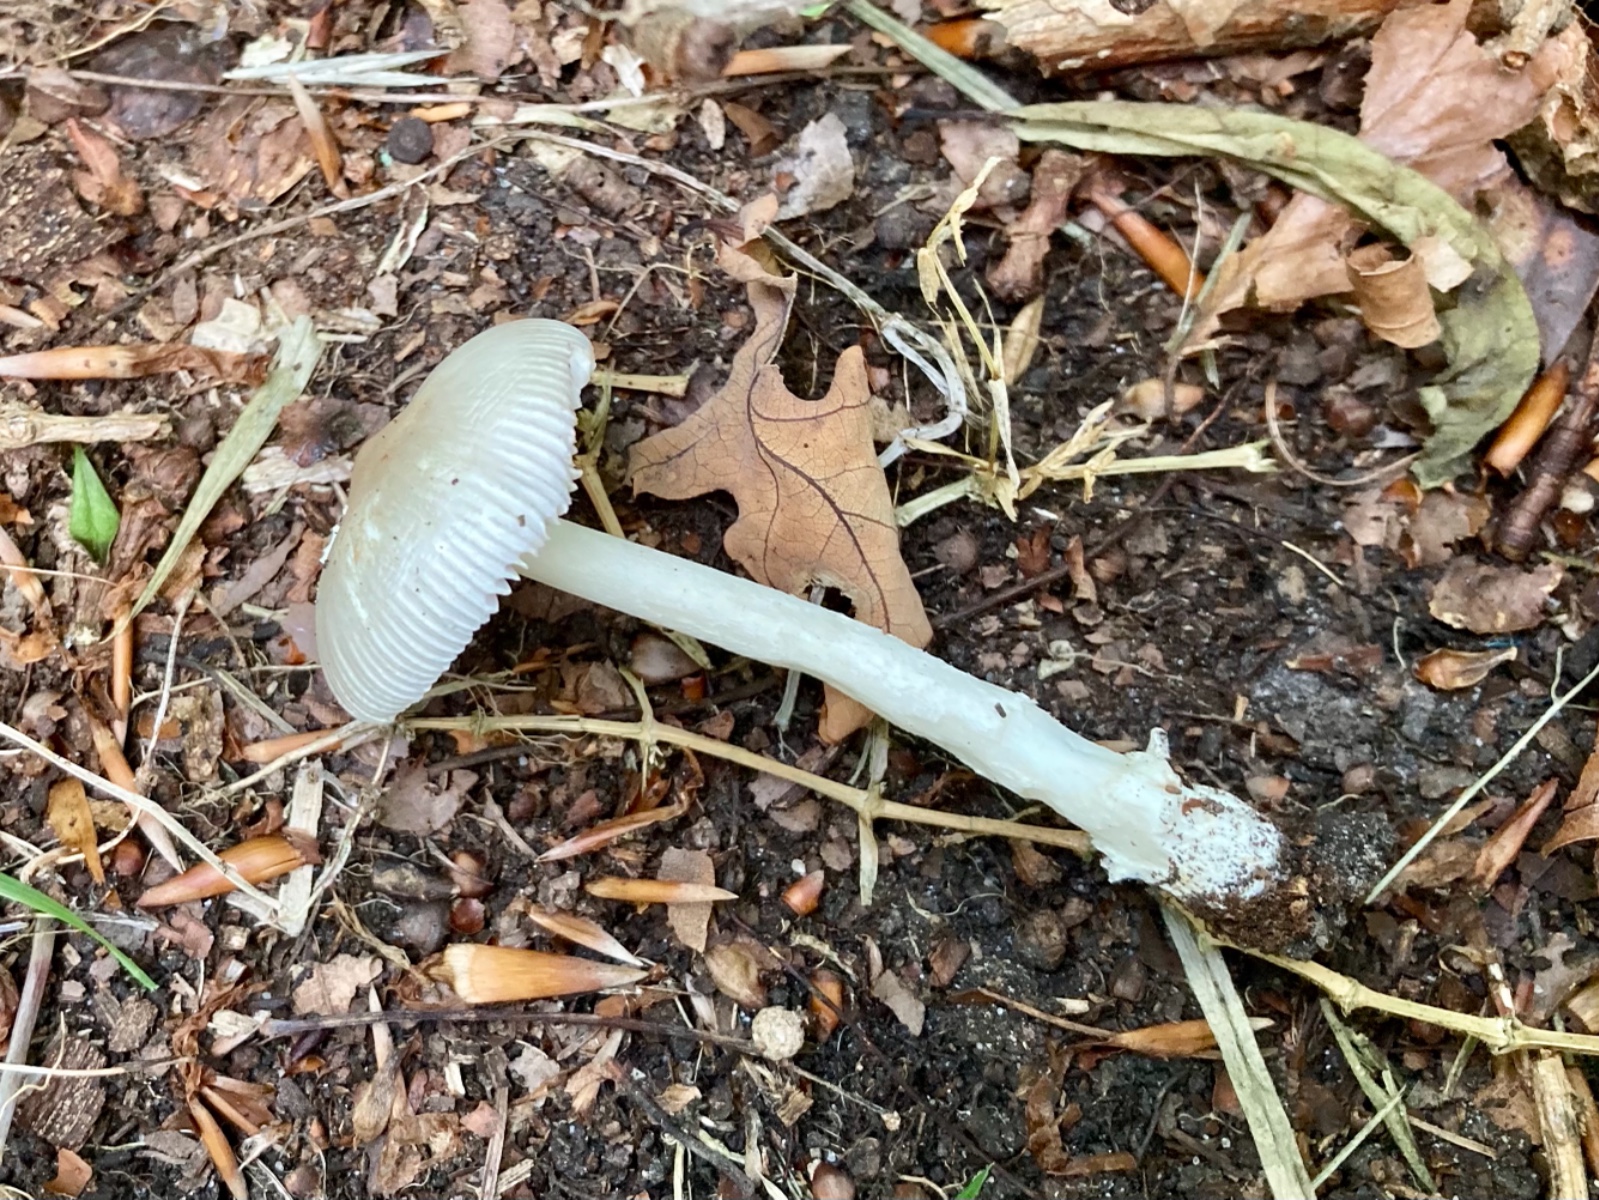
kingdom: Fungi
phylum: Basidiomycota
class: Agaricomycetes
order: Agaricales
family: Amanitaceae
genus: Amanita
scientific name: Amanita vaginata
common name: grå kam-fluesvamp
